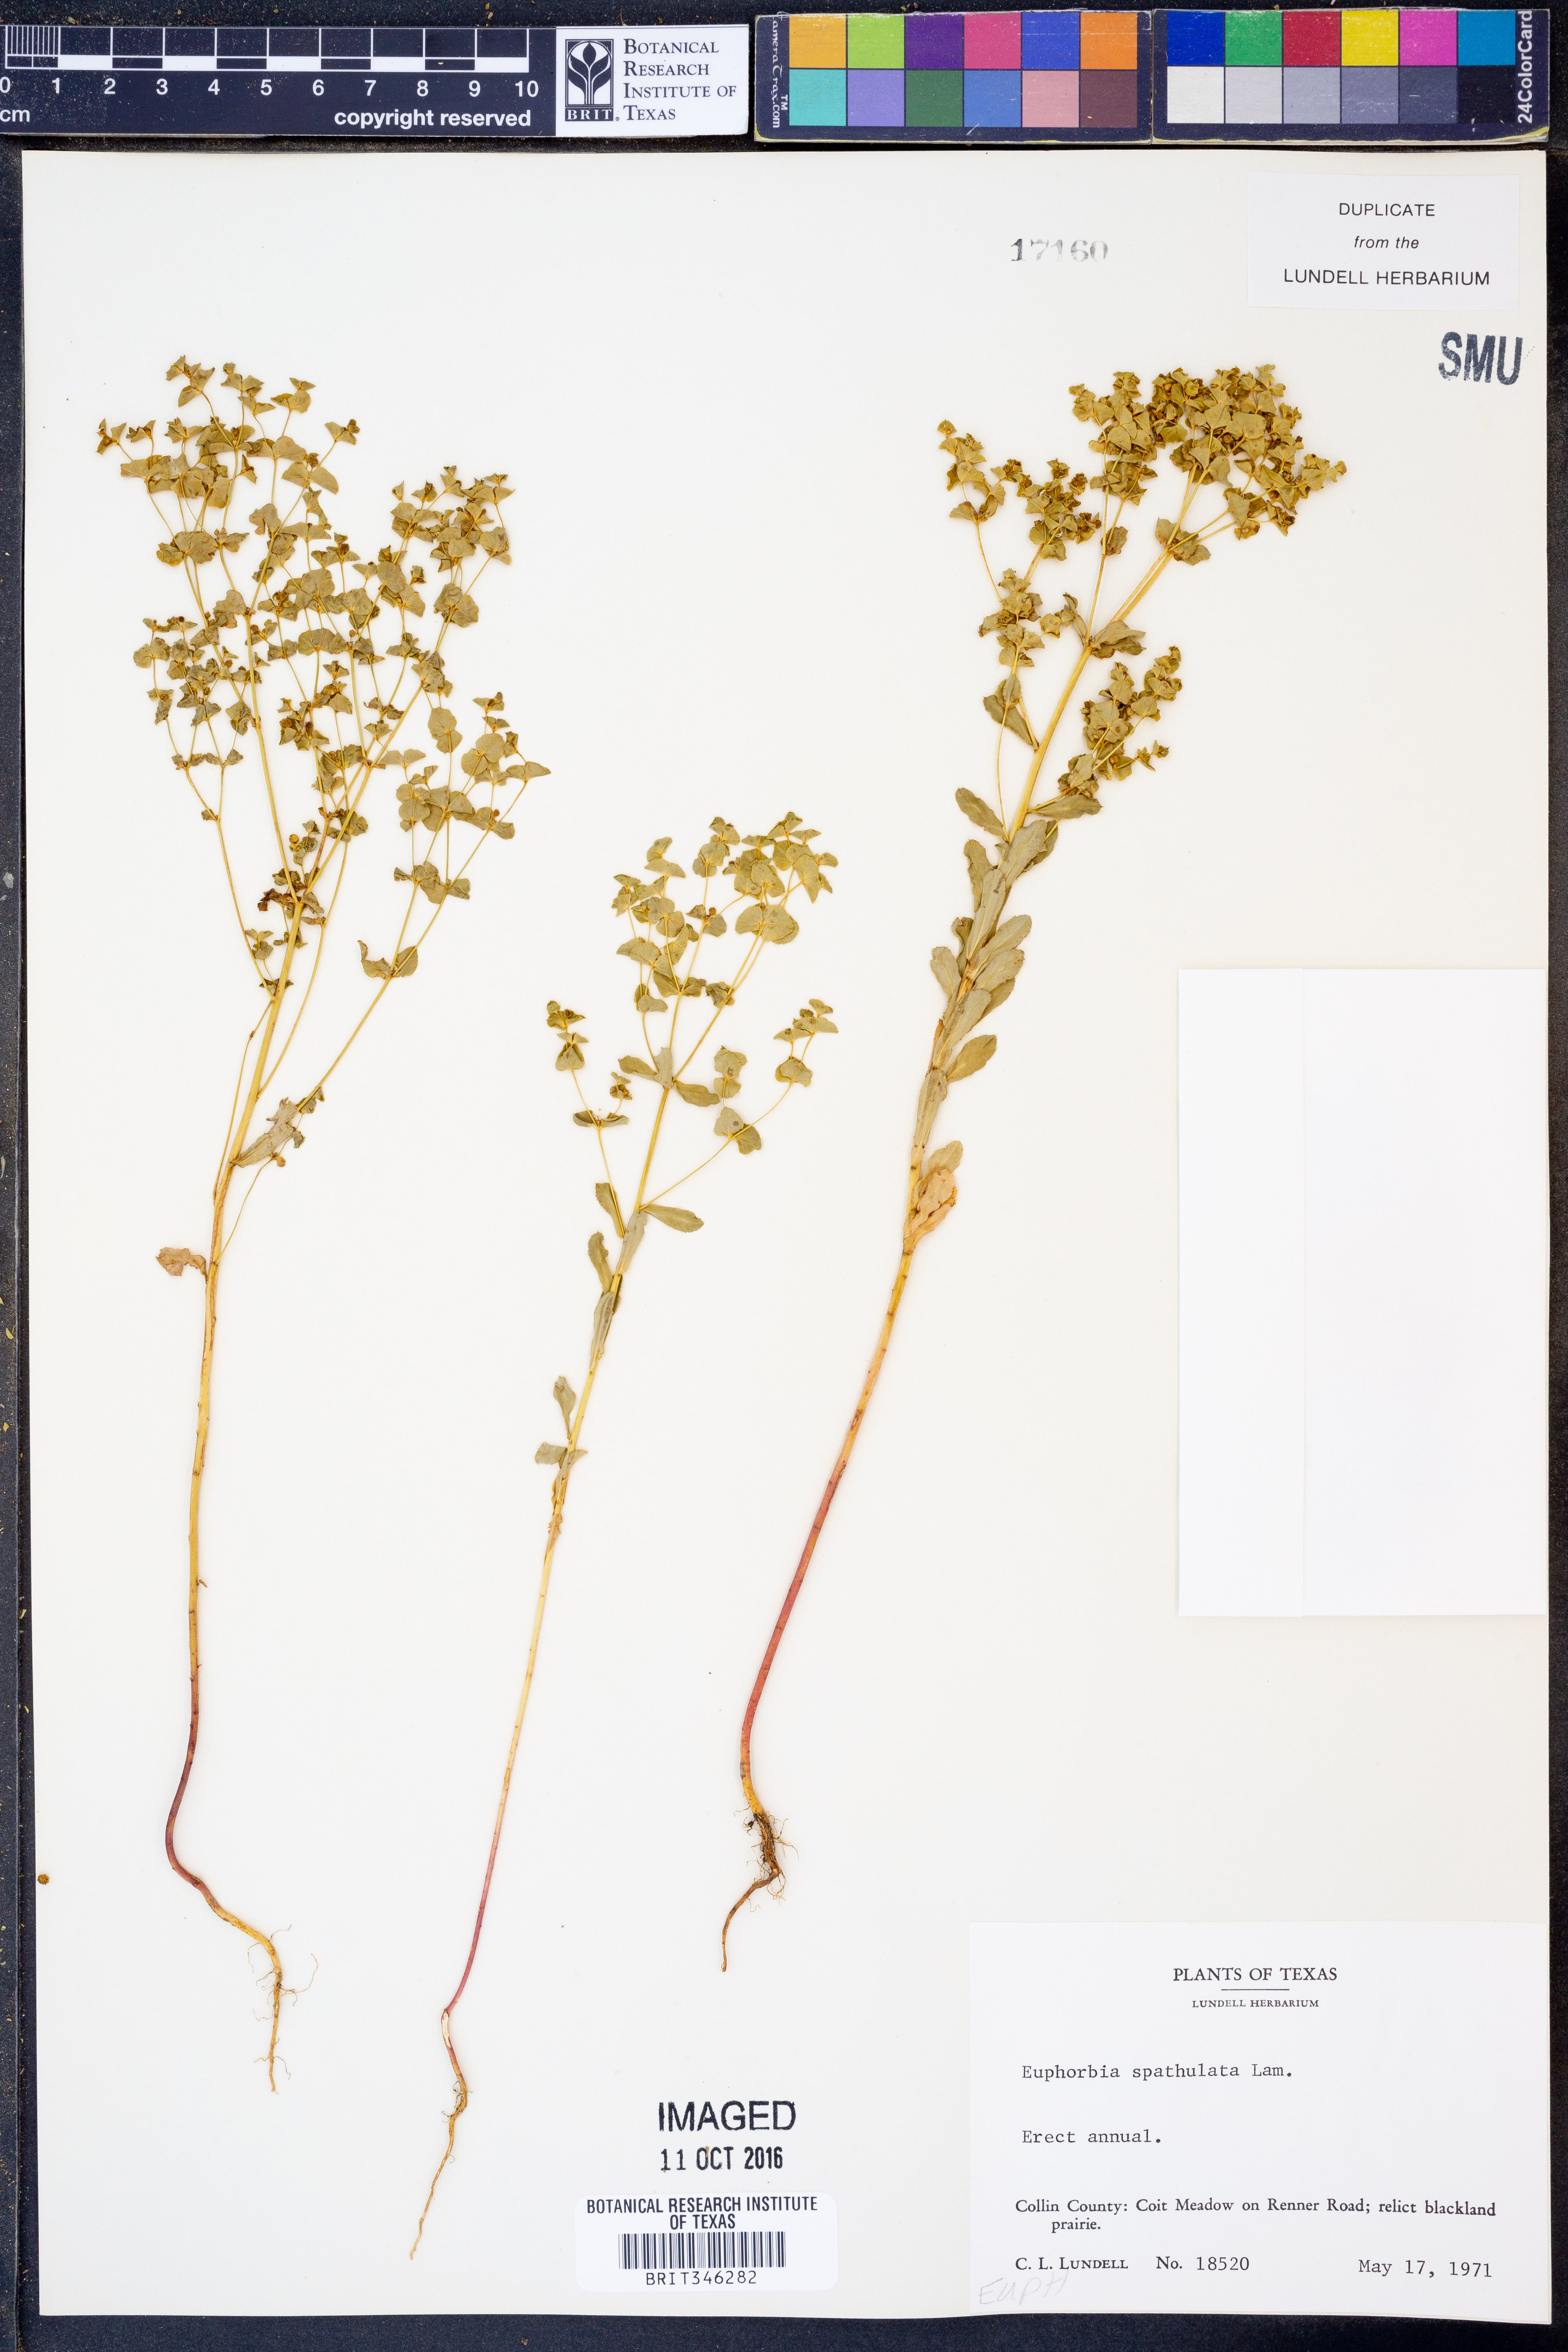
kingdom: Plantae
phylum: Tracheophyta
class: Magnoliopsida
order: Malpighiales
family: Euphorbiaceae
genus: Euphorbia
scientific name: Euphorbia spathulata
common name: Blunt spurge
